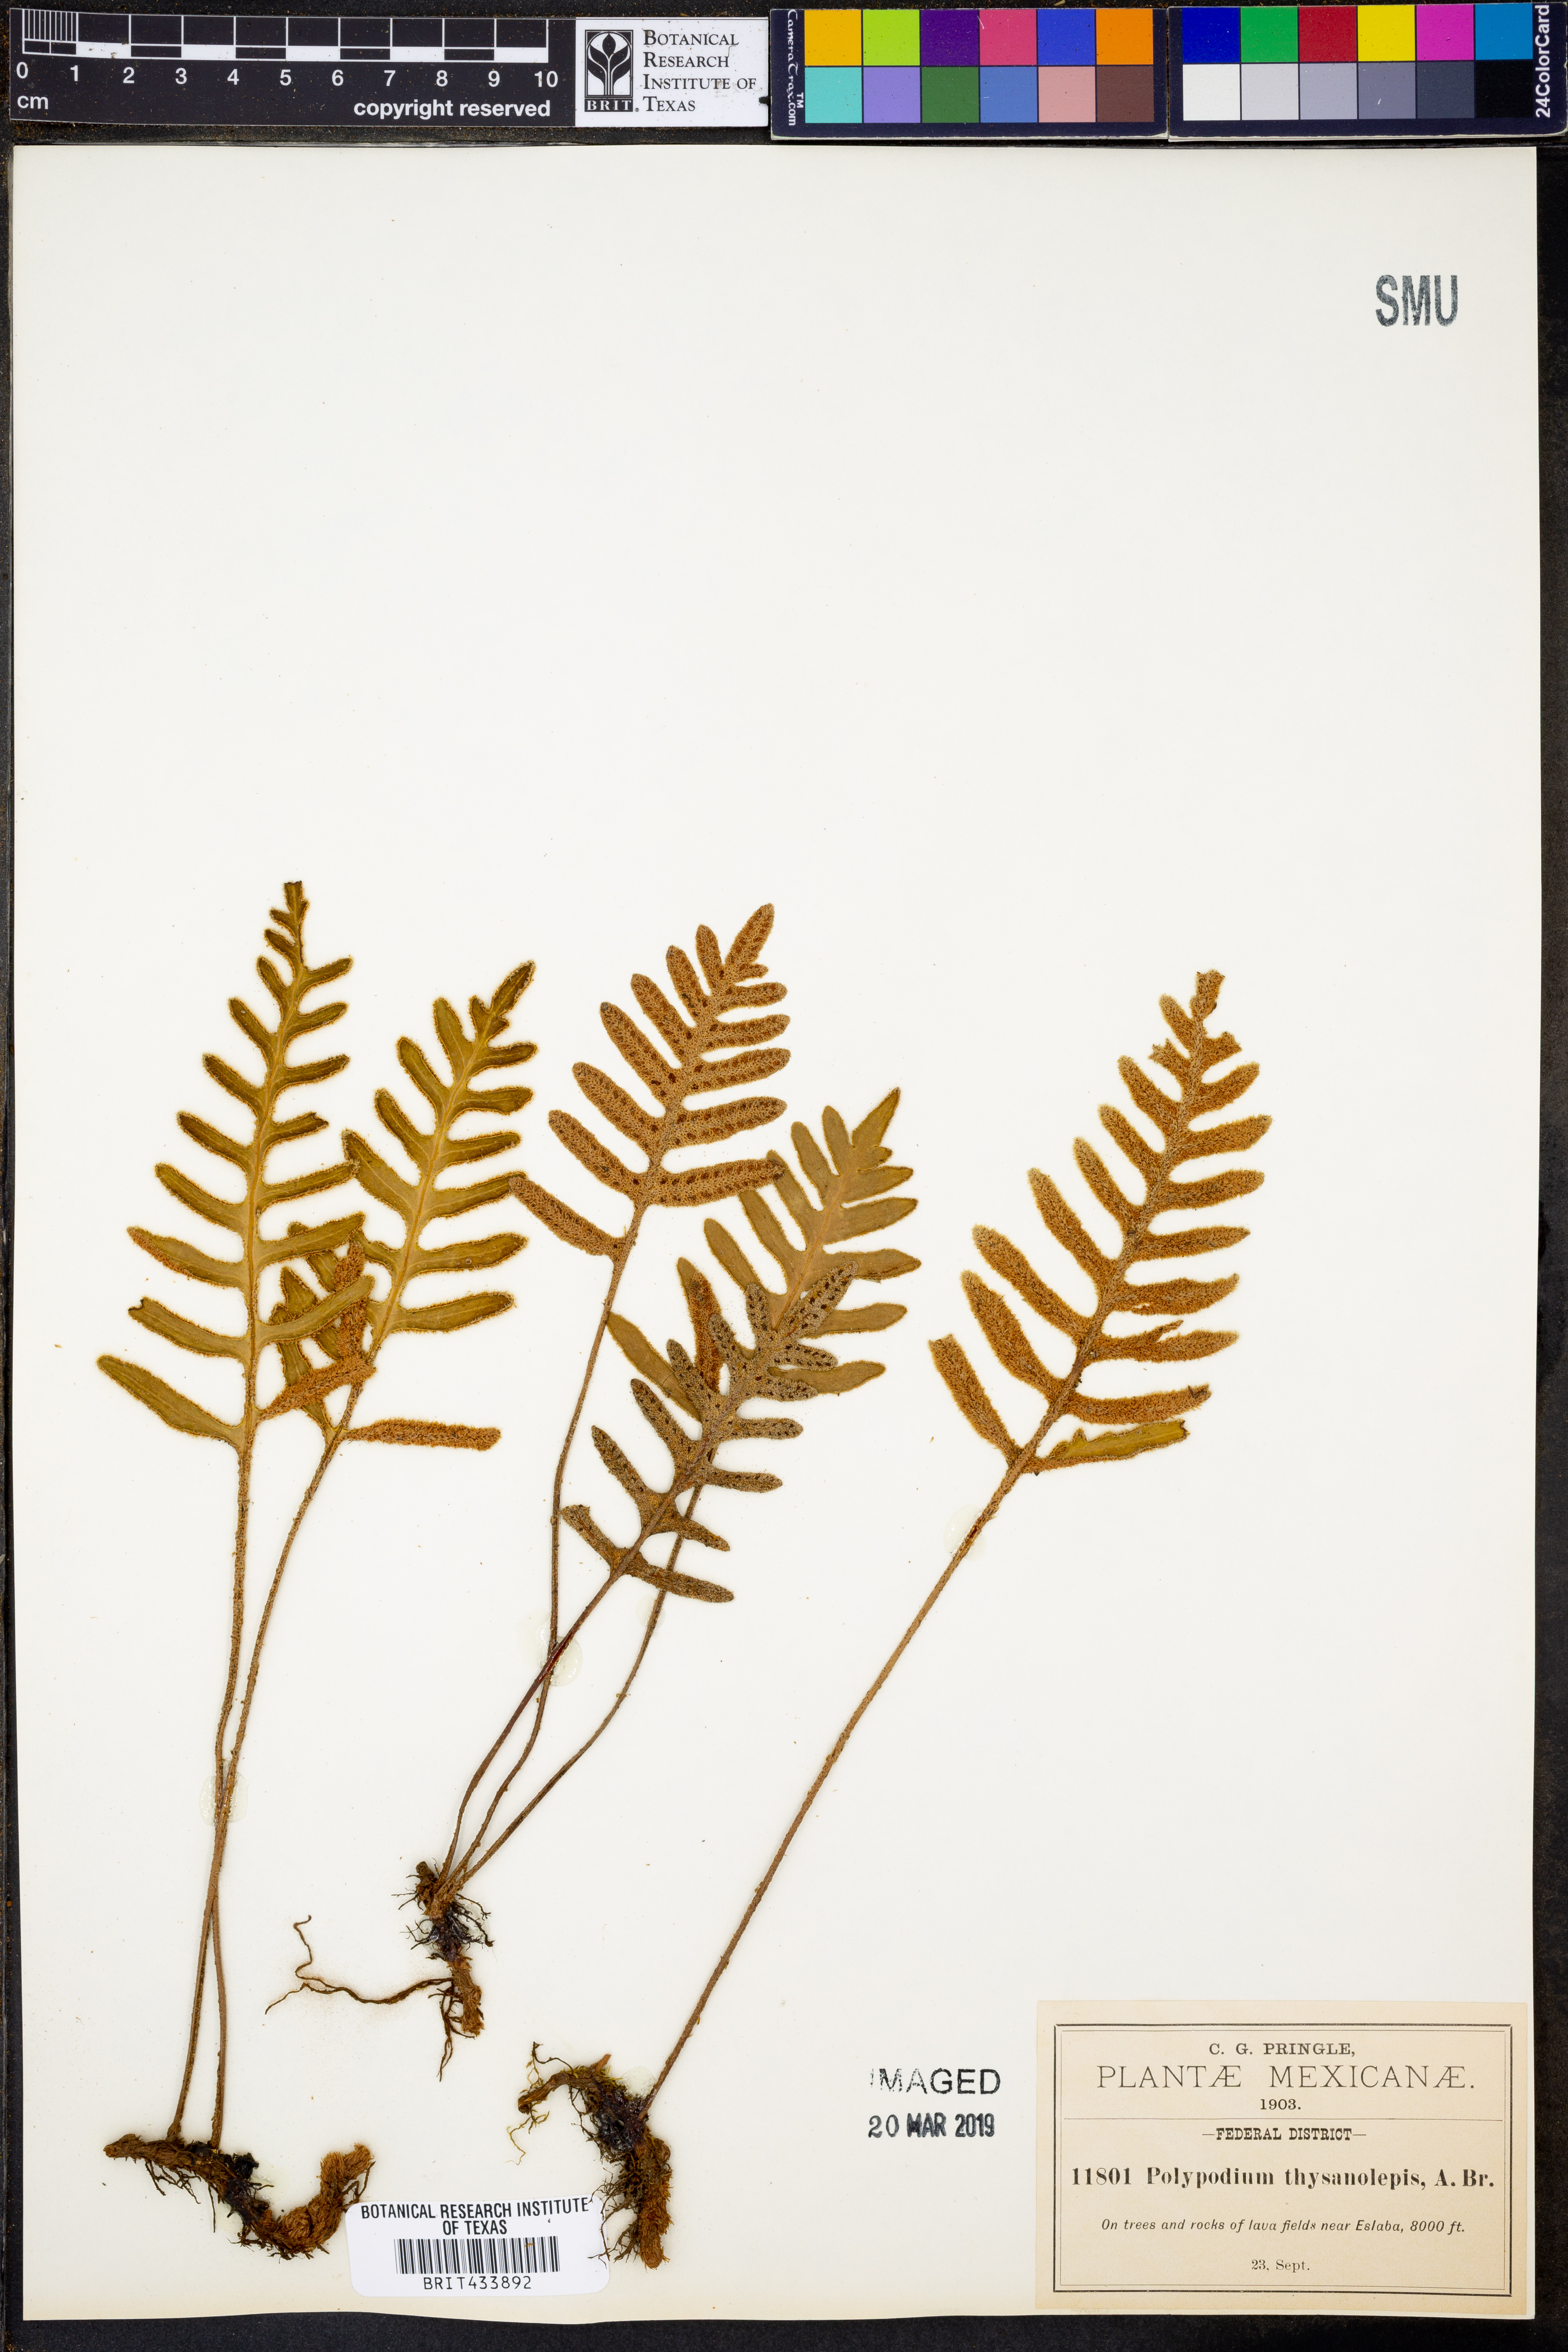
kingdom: Plantae
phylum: Tracheophyta
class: Polypodiopsida
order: Polypodiales
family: Polypodiaceae
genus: Pleopeltis
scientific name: Pleopeltis thyssanolepis
